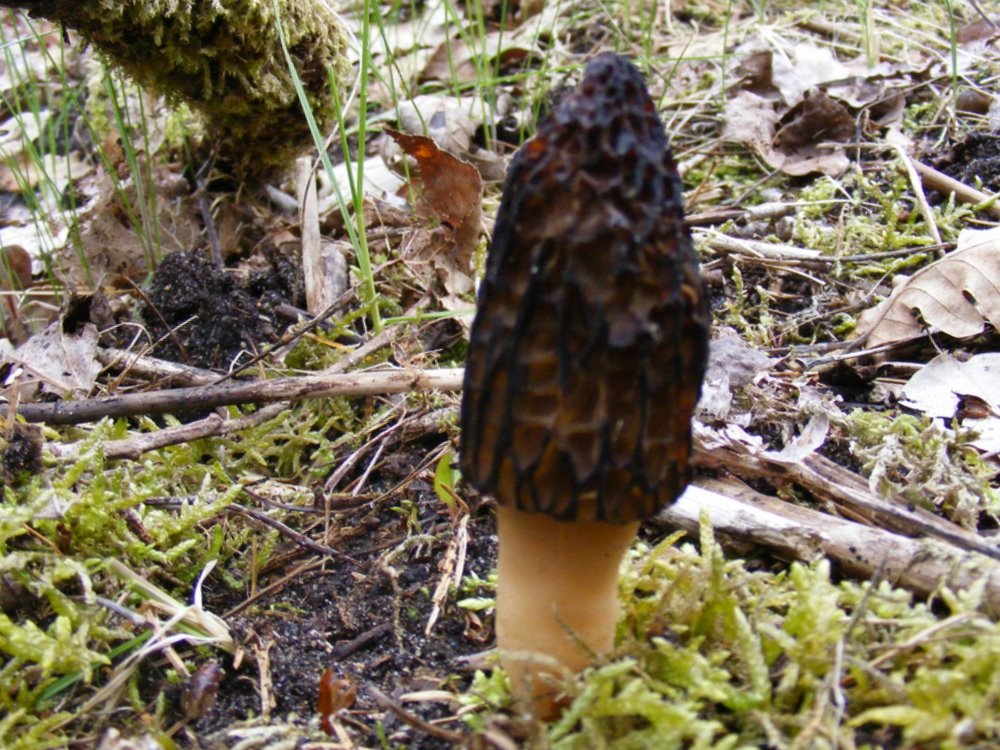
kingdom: Fungi
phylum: Ascomycota
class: Pezizomycetes
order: Pezizales
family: Morchellaceae
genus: Morchella
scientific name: Morchella esculenta
